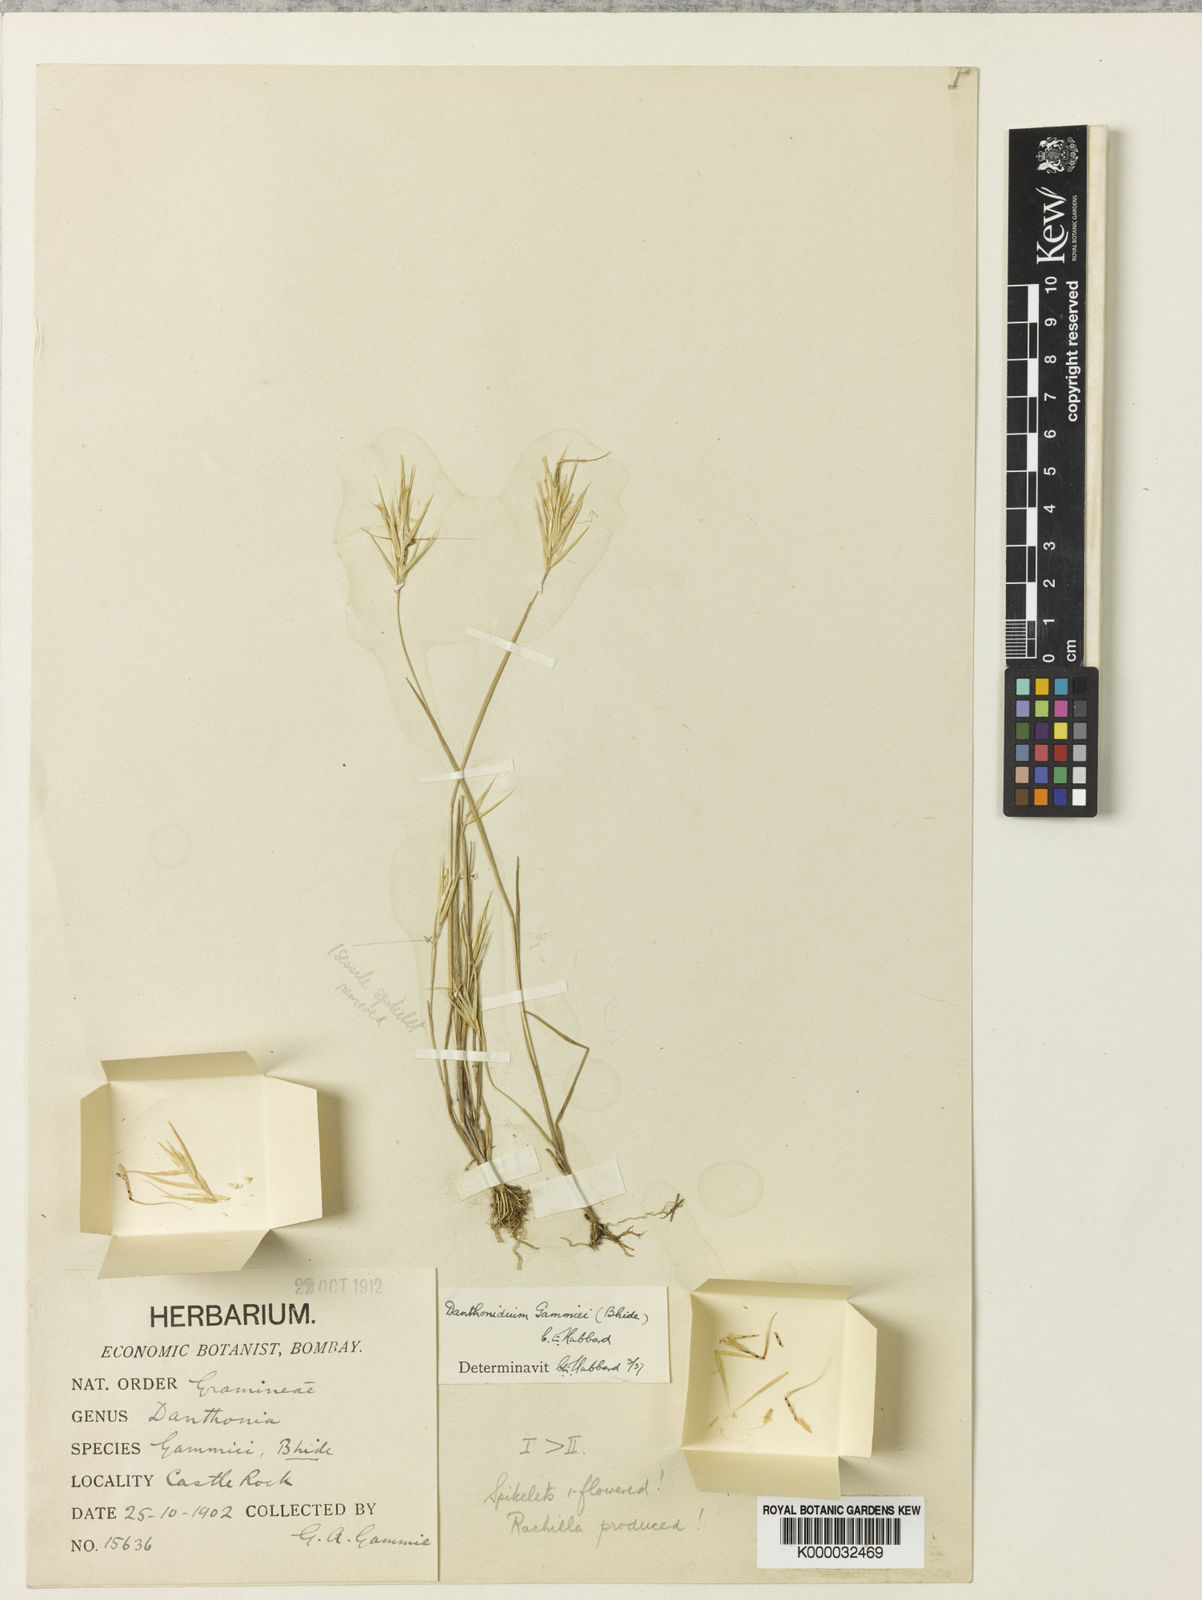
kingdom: Plantae
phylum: Tracheophyta
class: Liliopsida
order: Poales
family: Poaceae
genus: Danthonidium
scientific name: Danthonidium gammiei
